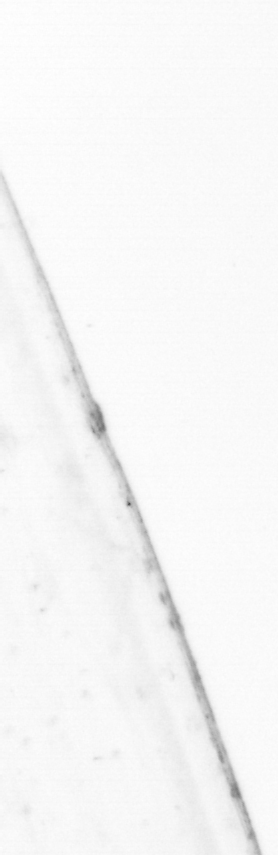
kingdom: Animalia
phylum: Chaetognatha
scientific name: Chaetognatha
